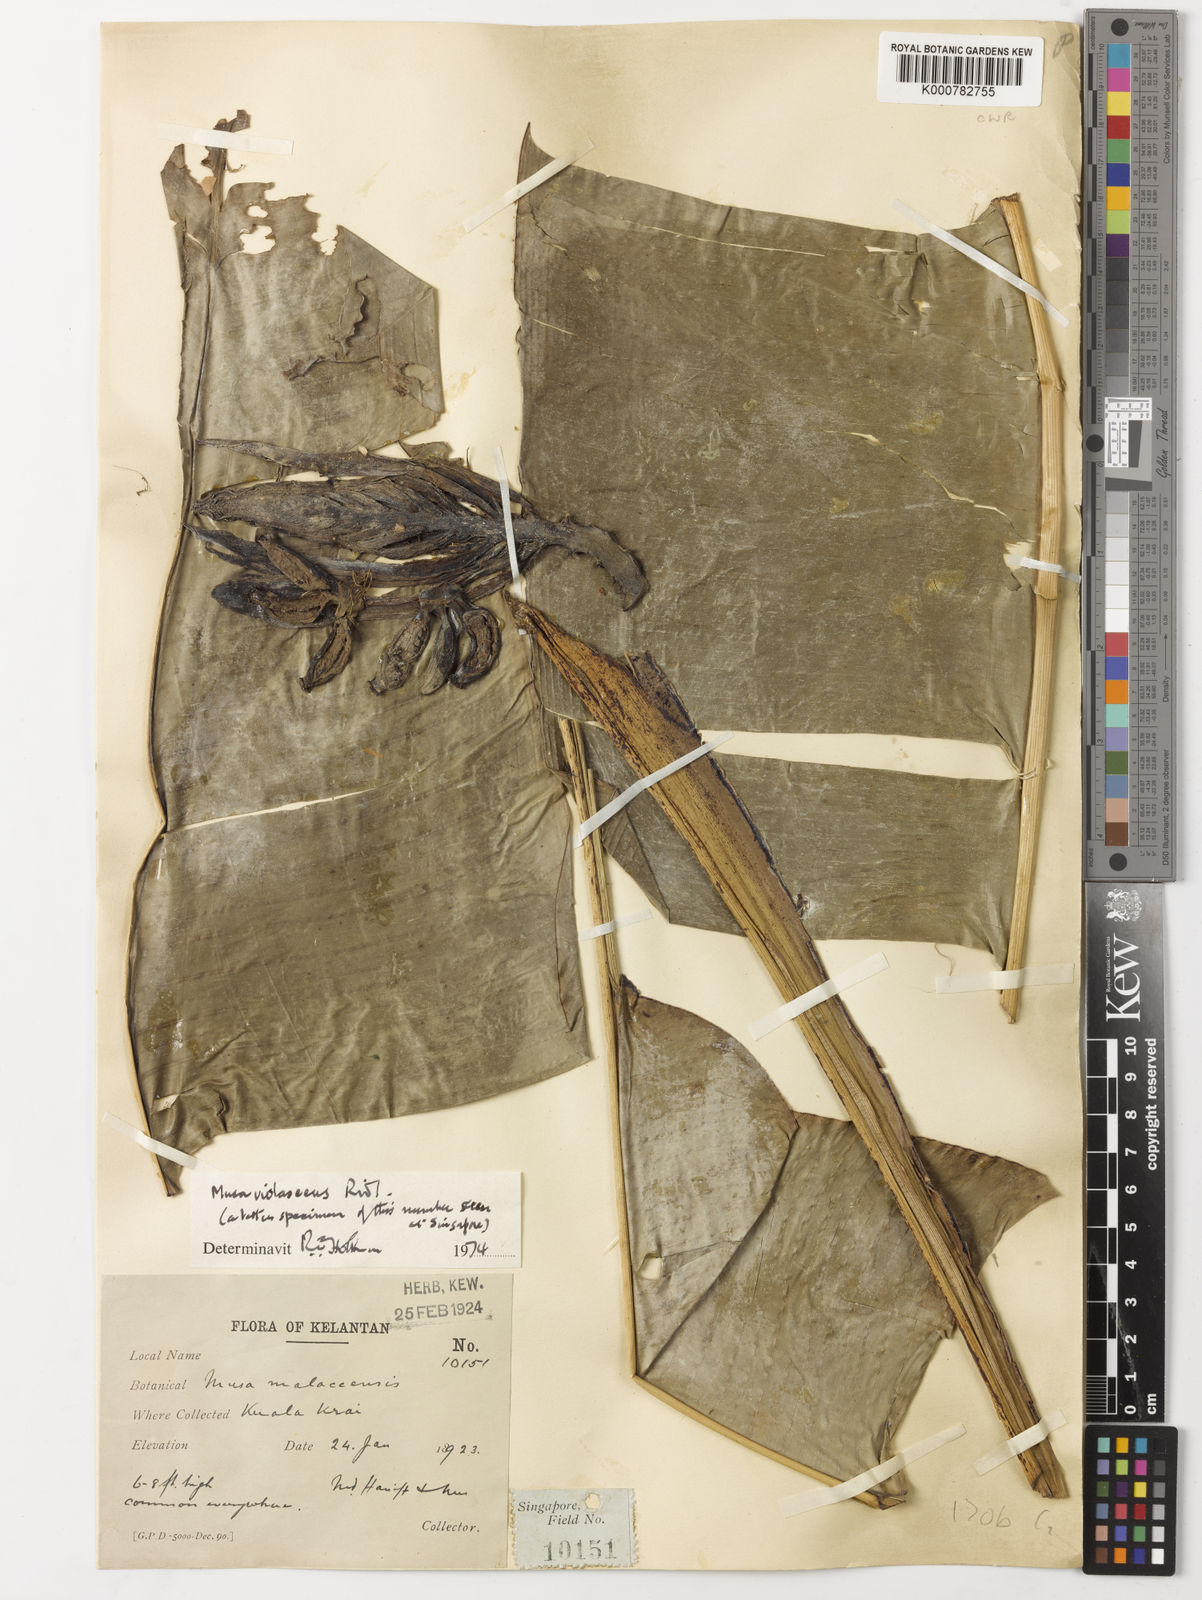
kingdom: Plantae
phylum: Tracheophyta
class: Liliopsida
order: Zingiberales
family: Musaceae
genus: Musa
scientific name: Musa violascens
